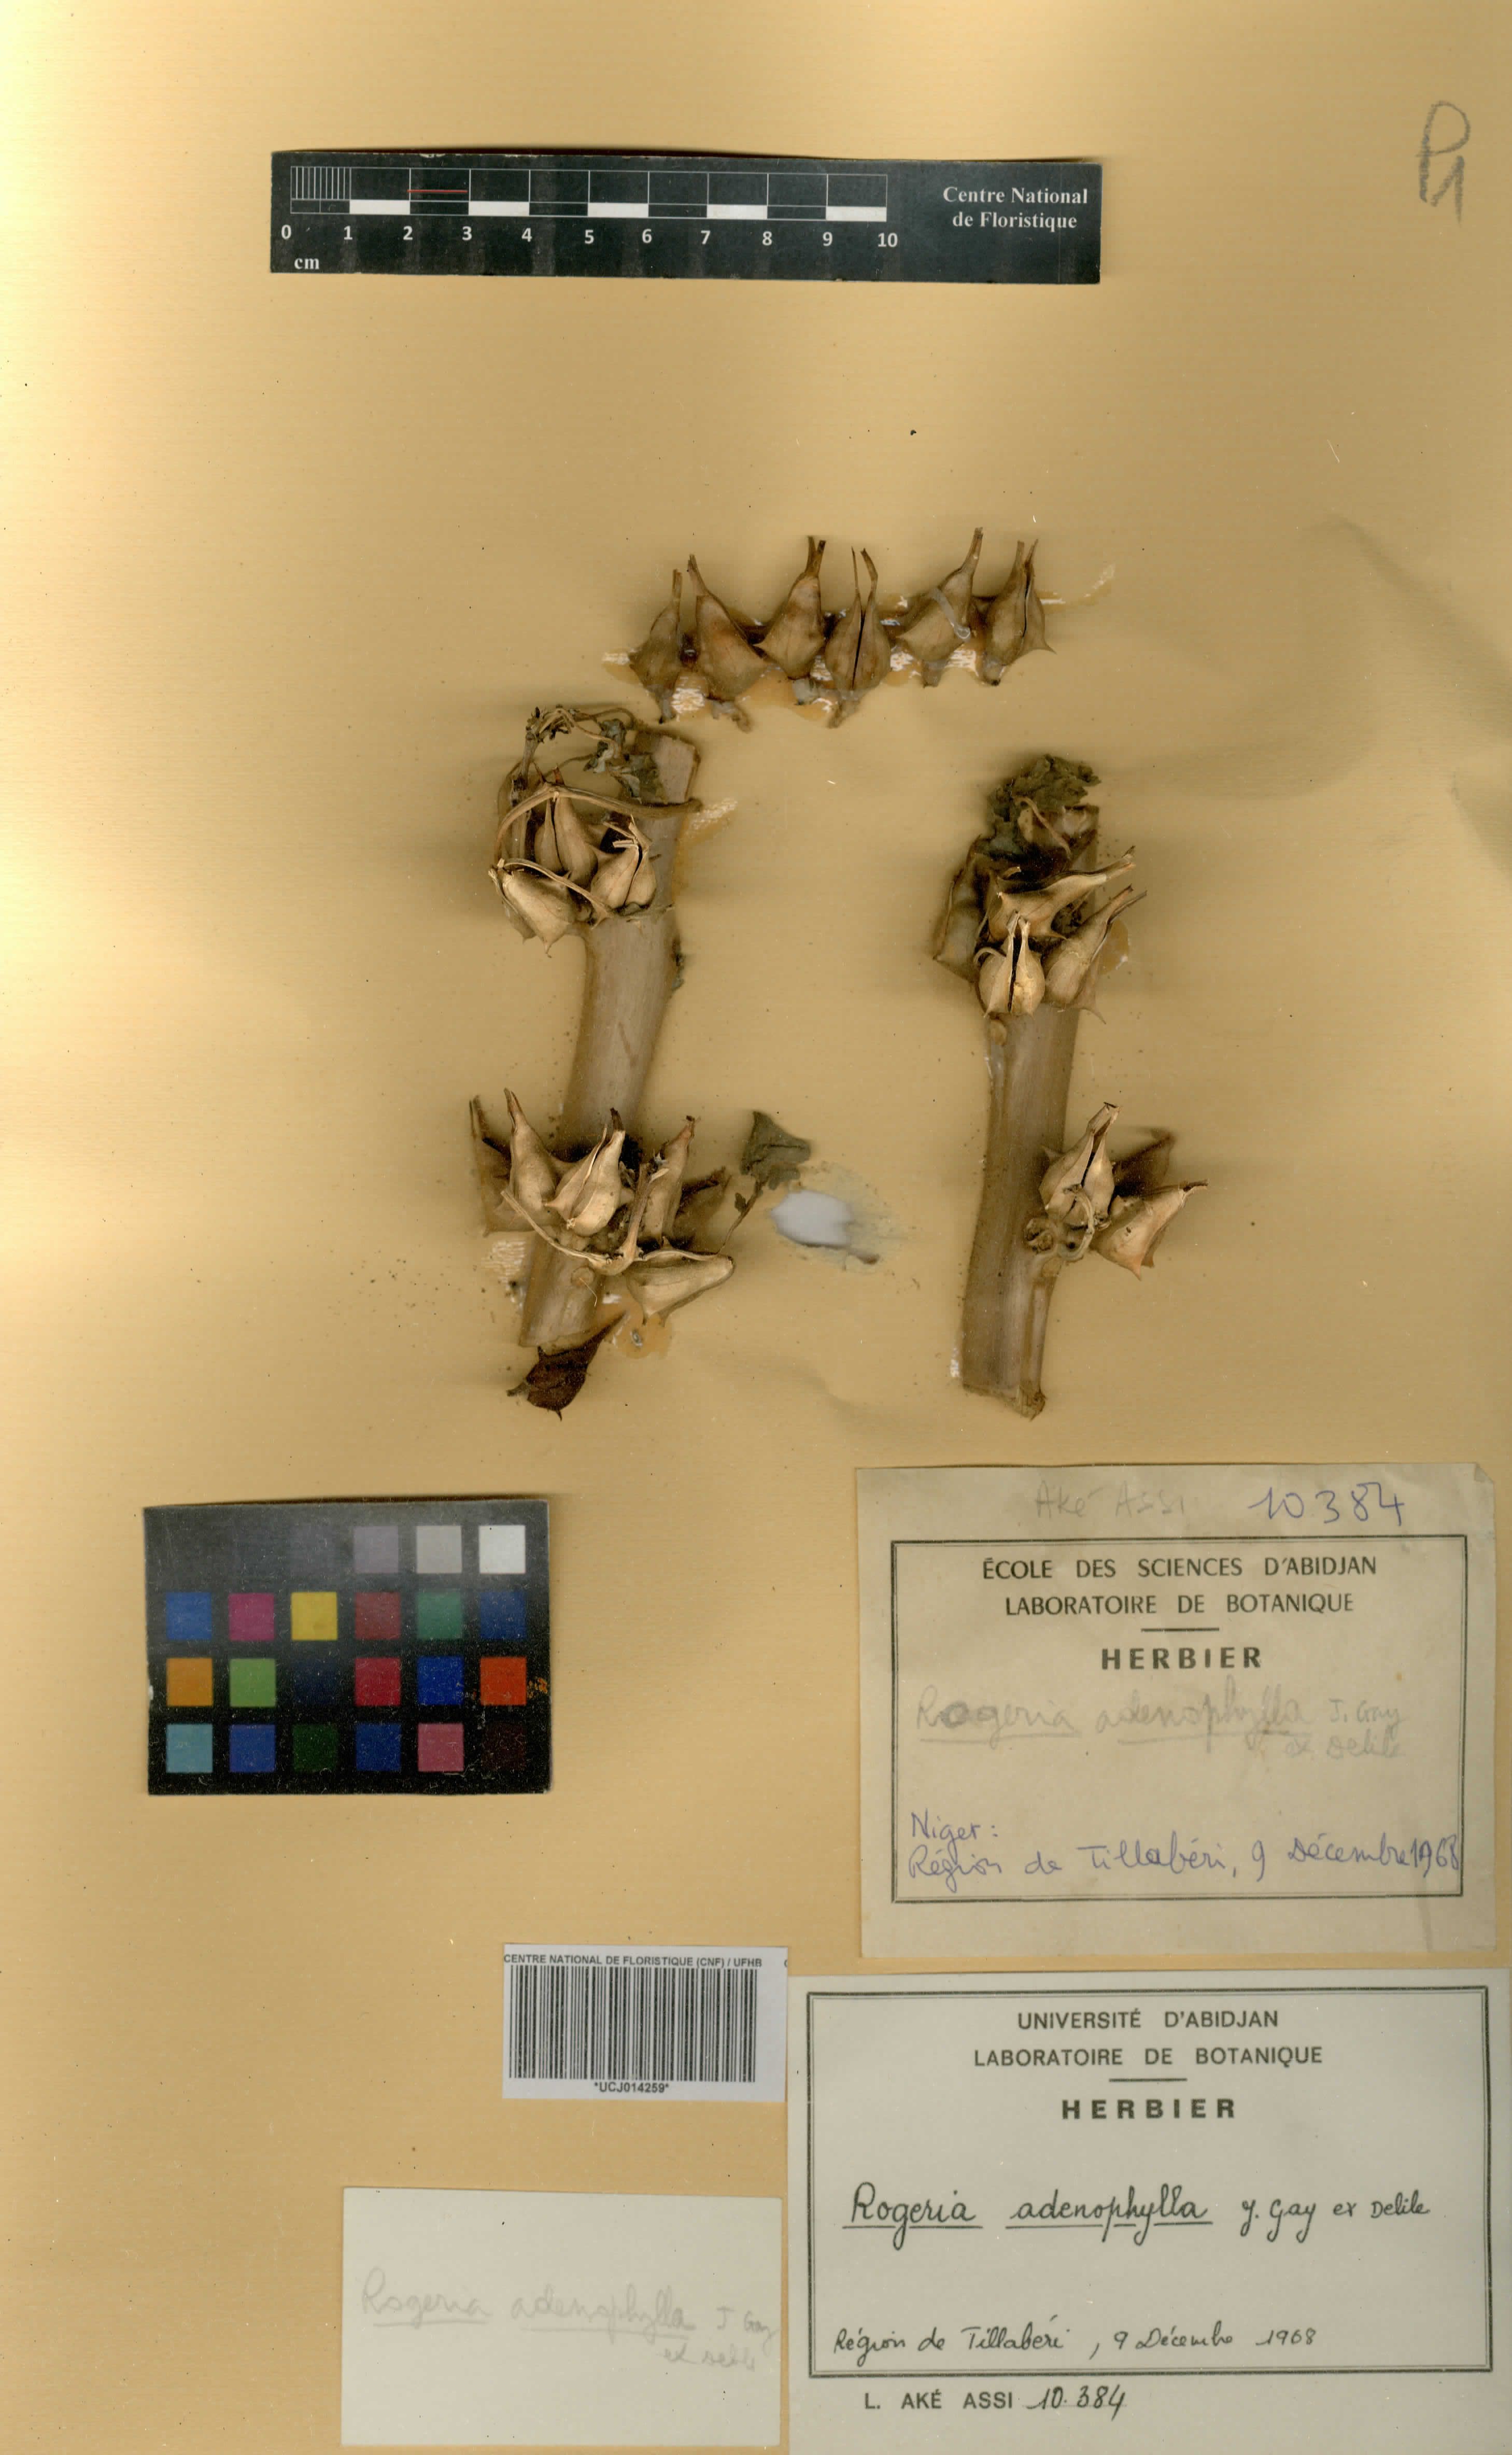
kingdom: Plantae
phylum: Tracheophyta
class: Magnoliopsida
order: Lamiales
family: Pedaliaceae
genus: Rogeria
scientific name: Rogeria adenophylla
